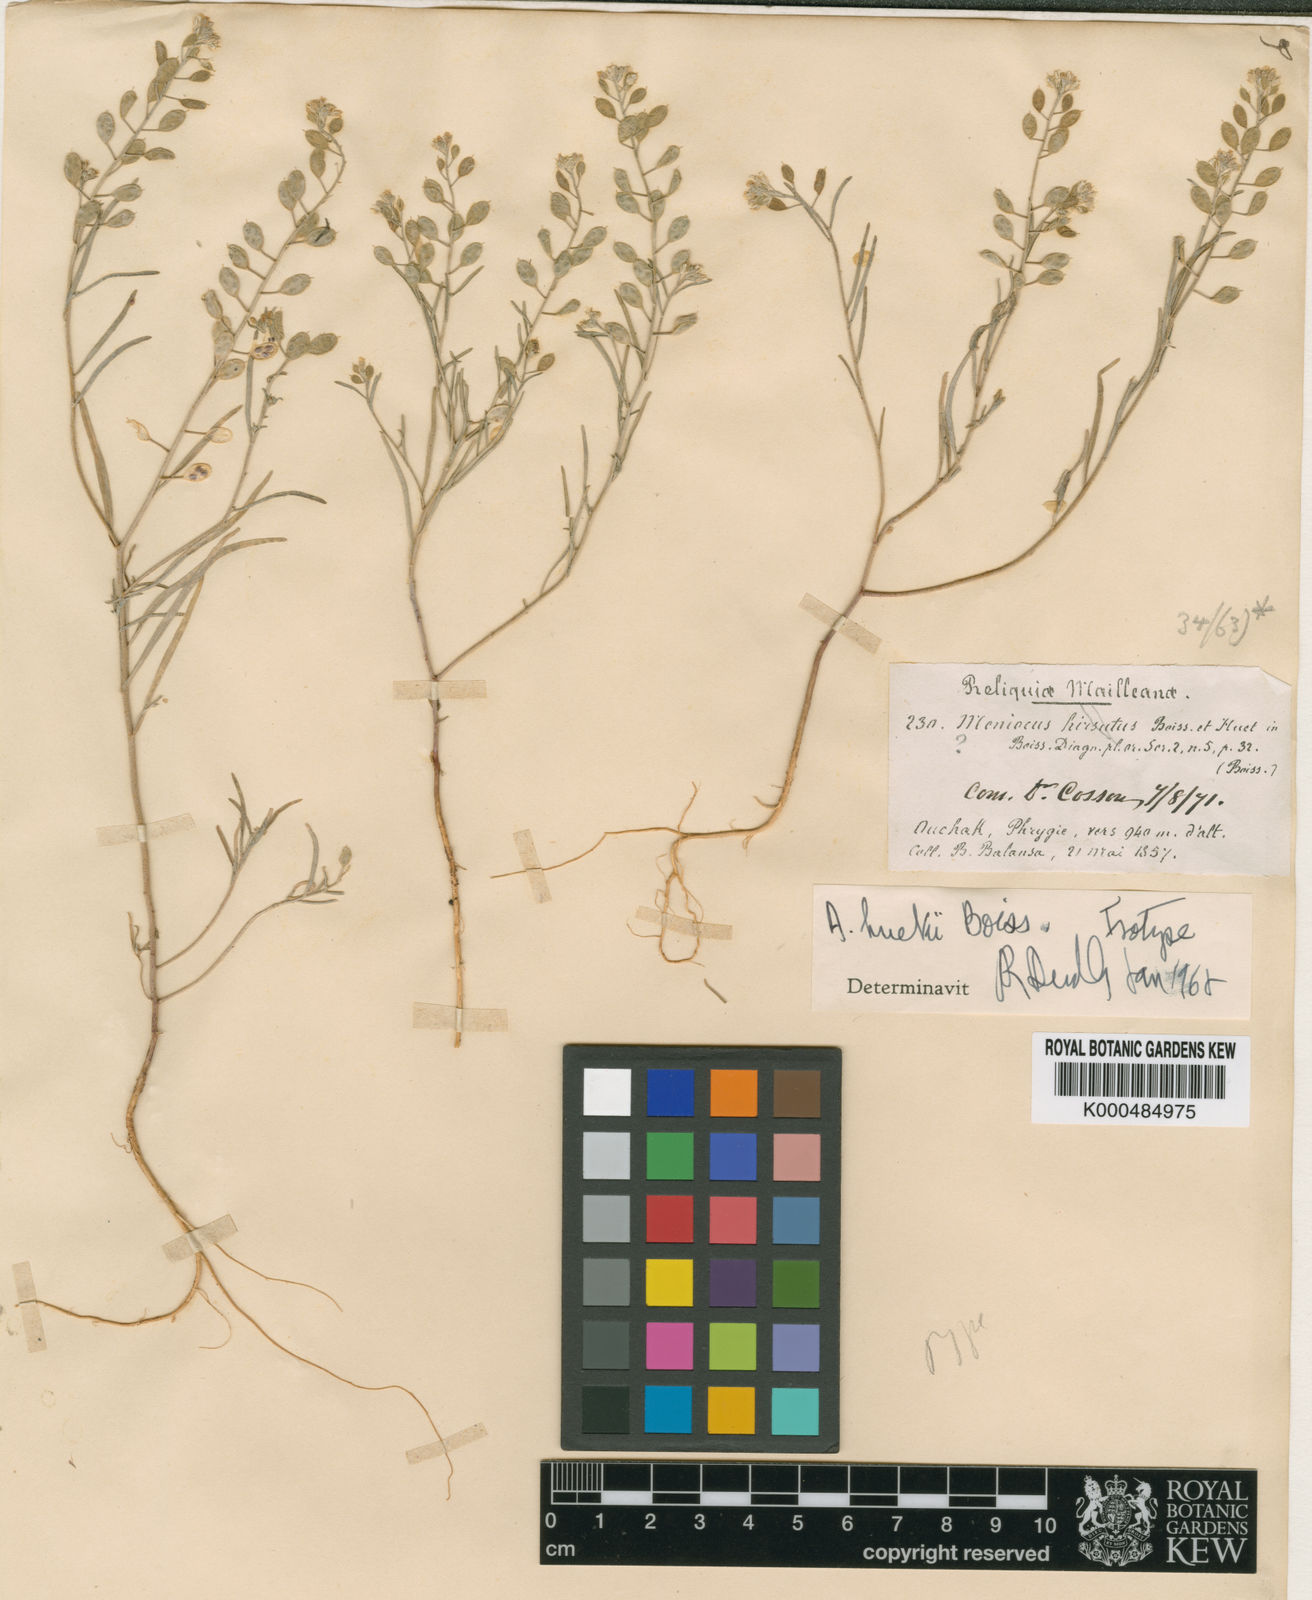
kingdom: Plantae
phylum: Tracheophyta
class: Magnoliopsida
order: Brassicales
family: Brassicaceae
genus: Meniocus
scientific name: Meniocus hirsutus
